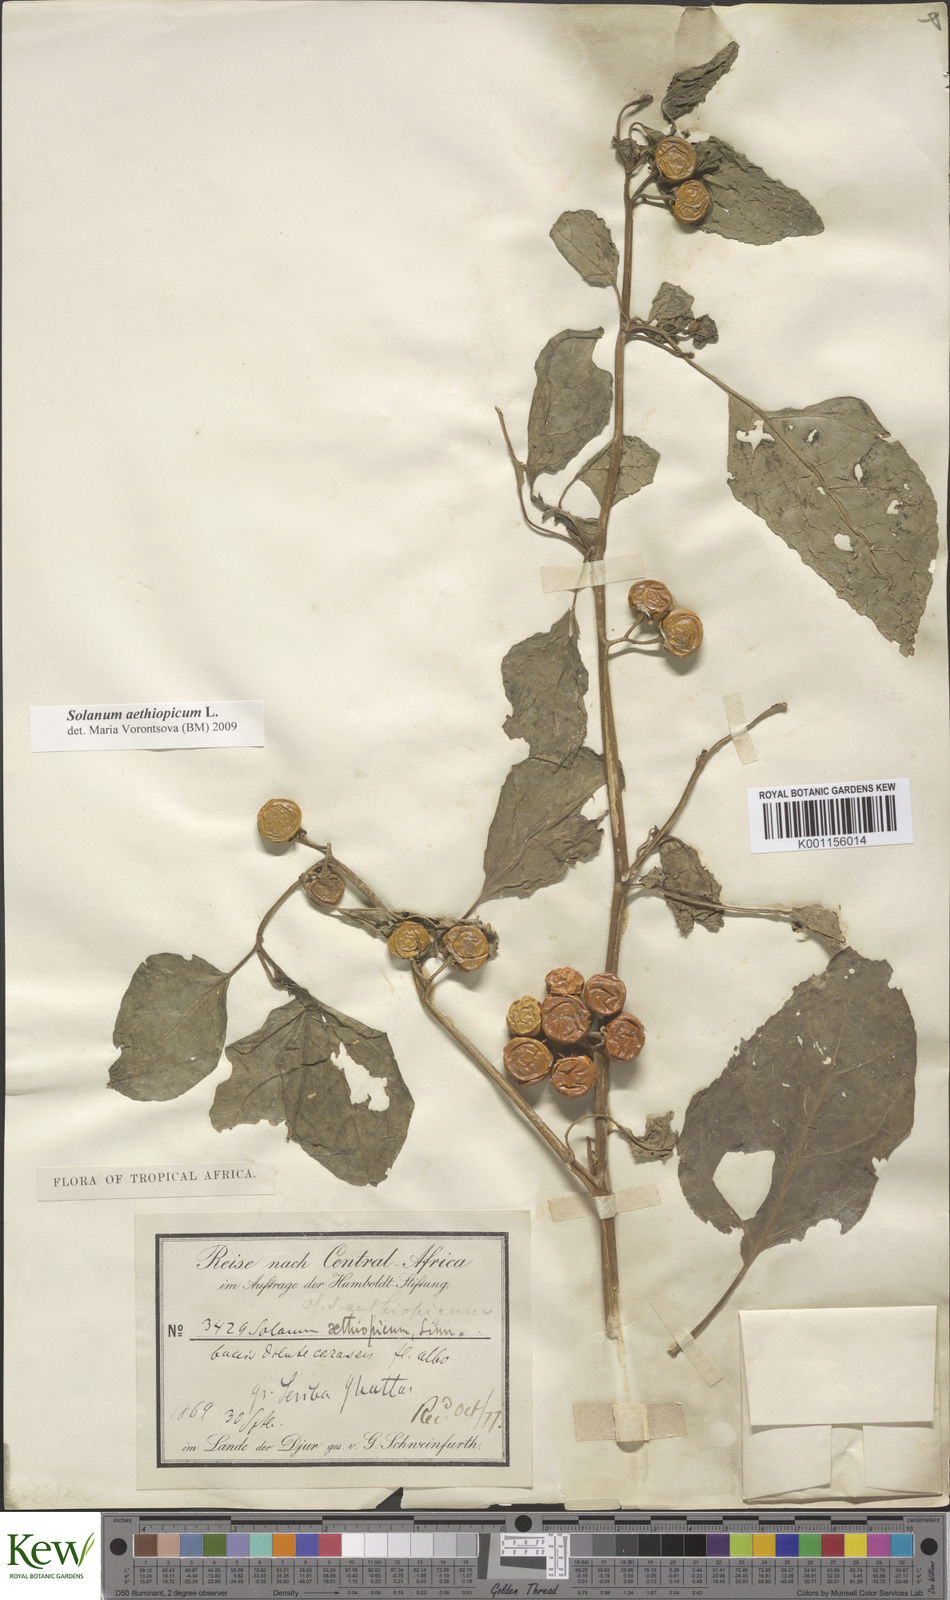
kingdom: Plantae
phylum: Tracheophyta
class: Magnoliopsida
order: Solanales
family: Solanaceae
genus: Solanum
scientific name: Solanum aethiopicum
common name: Gilo
